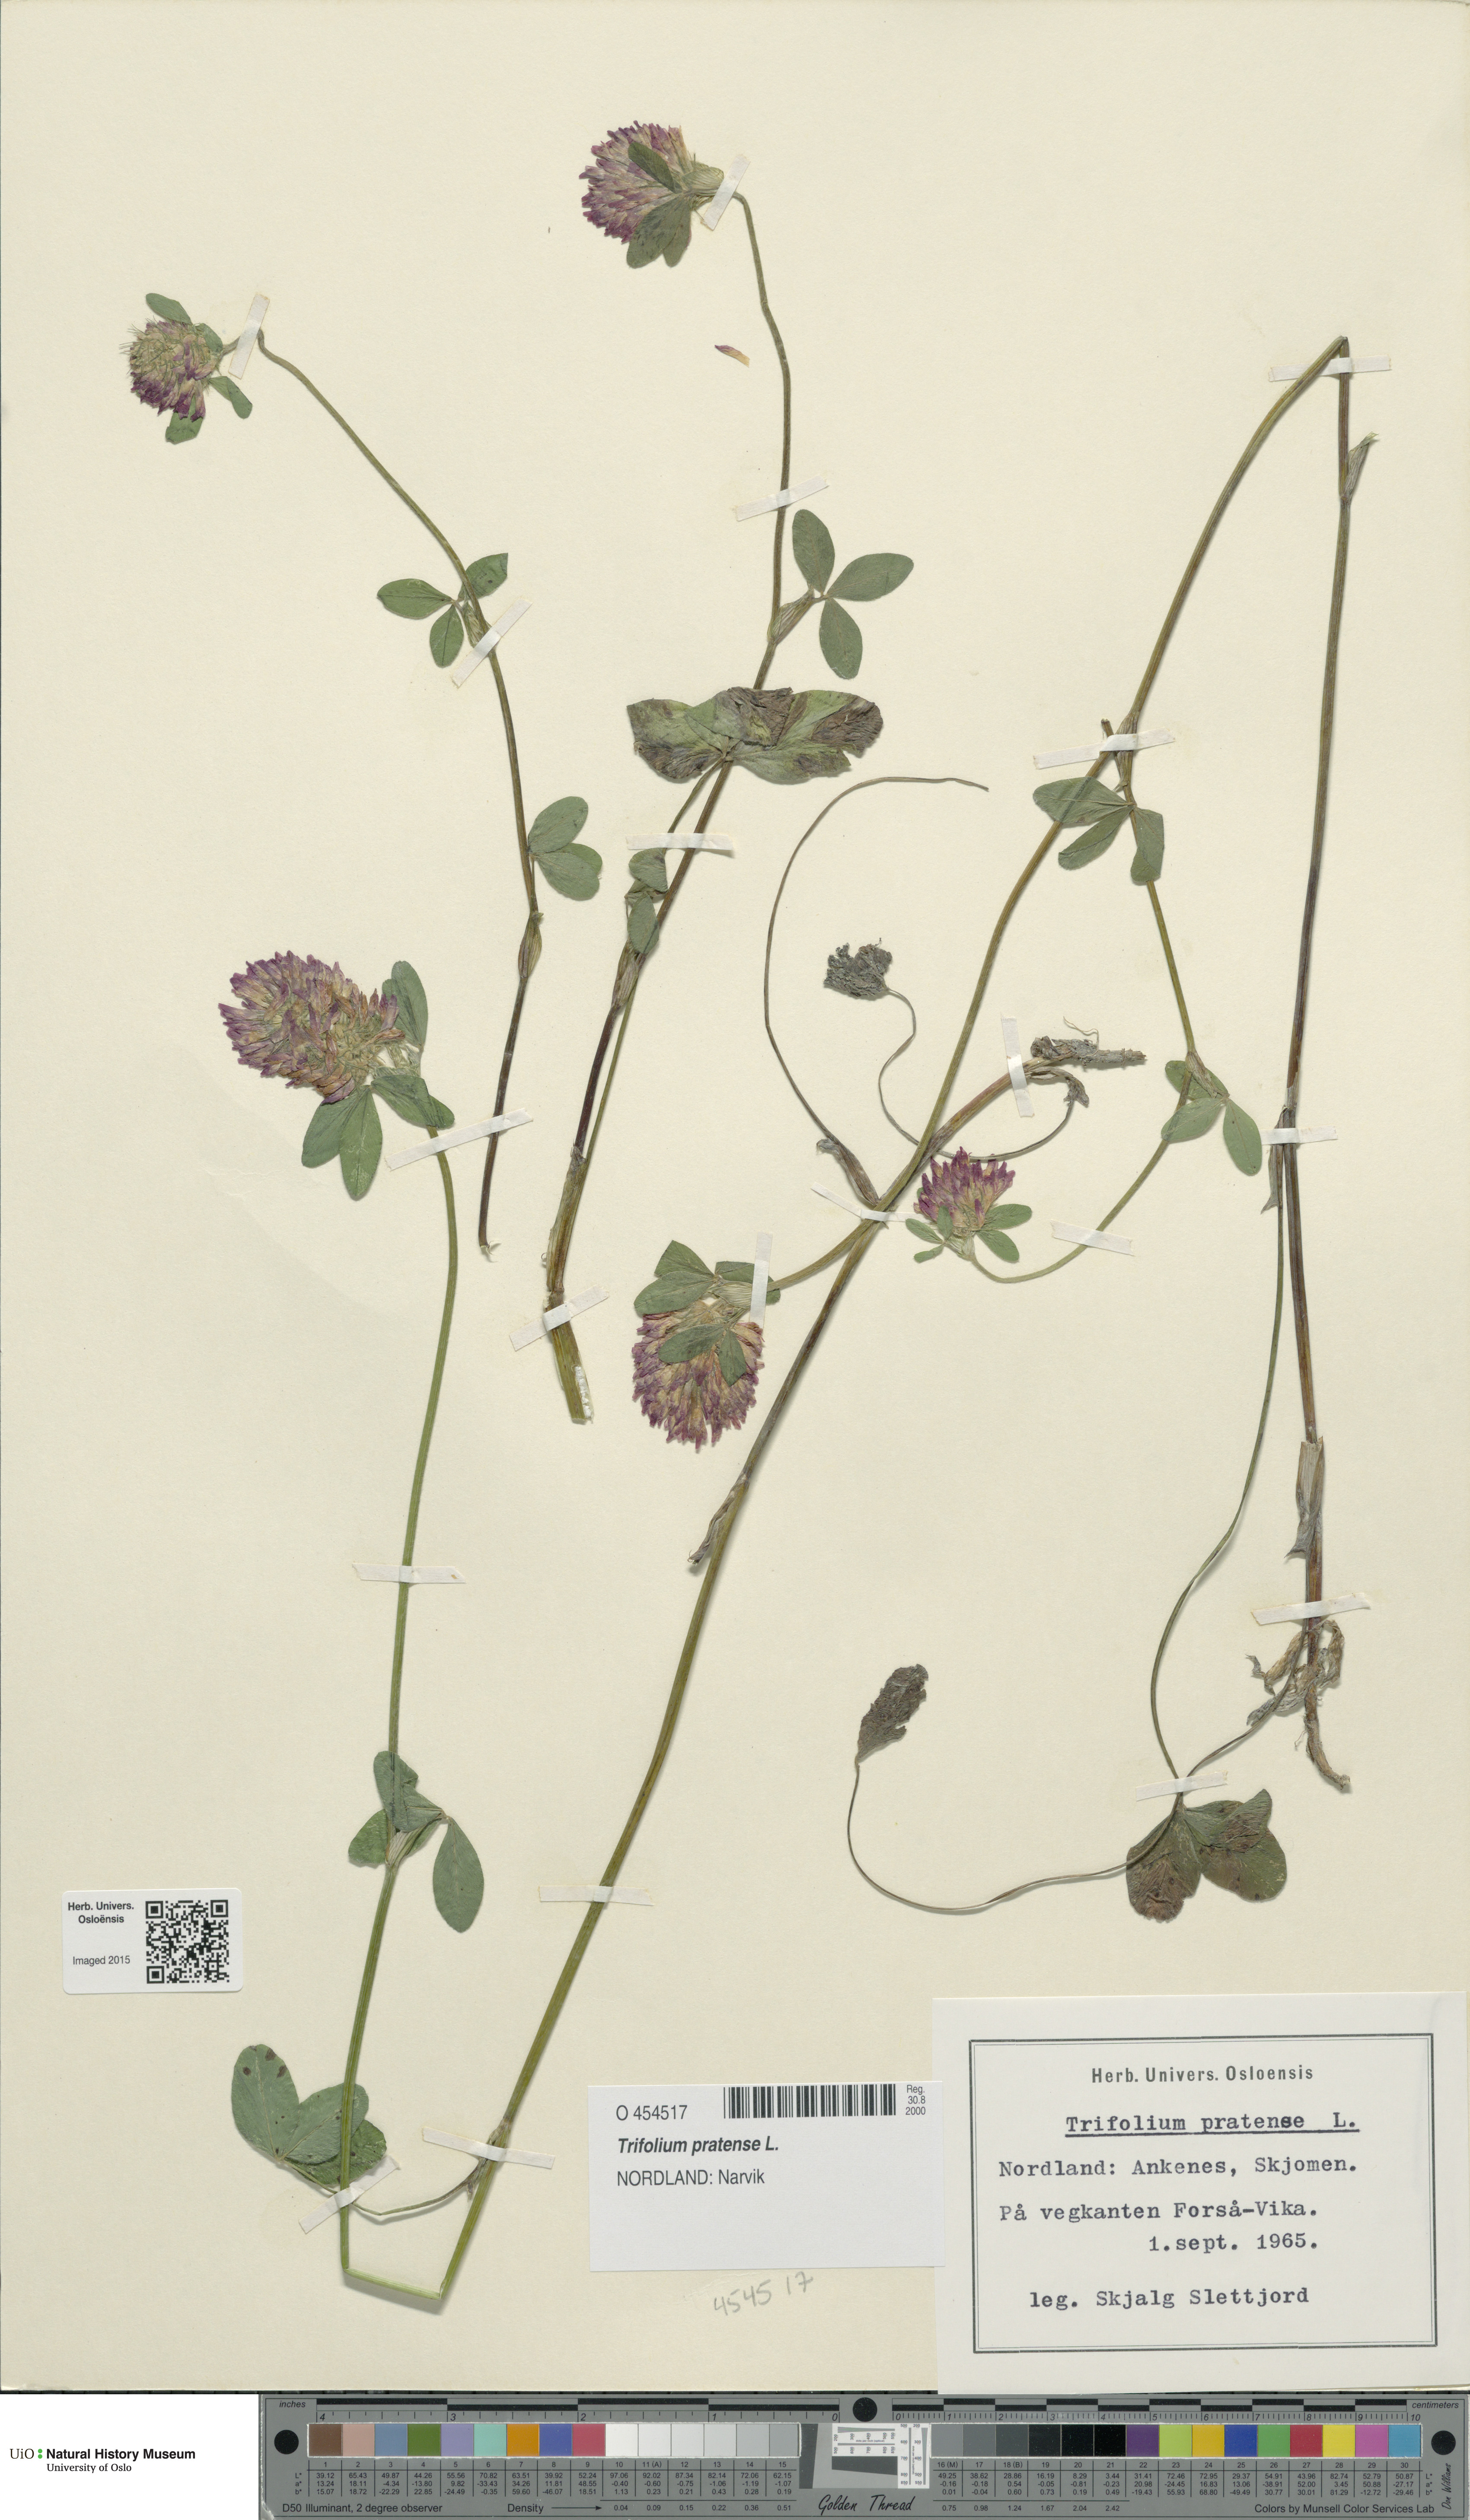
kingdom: Plantae
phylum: Tracheophyta
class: Magnoliopsida
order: Fabales
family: Fabaceae
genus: Trifolium
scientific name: Trifolium pratense
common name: Red clover
